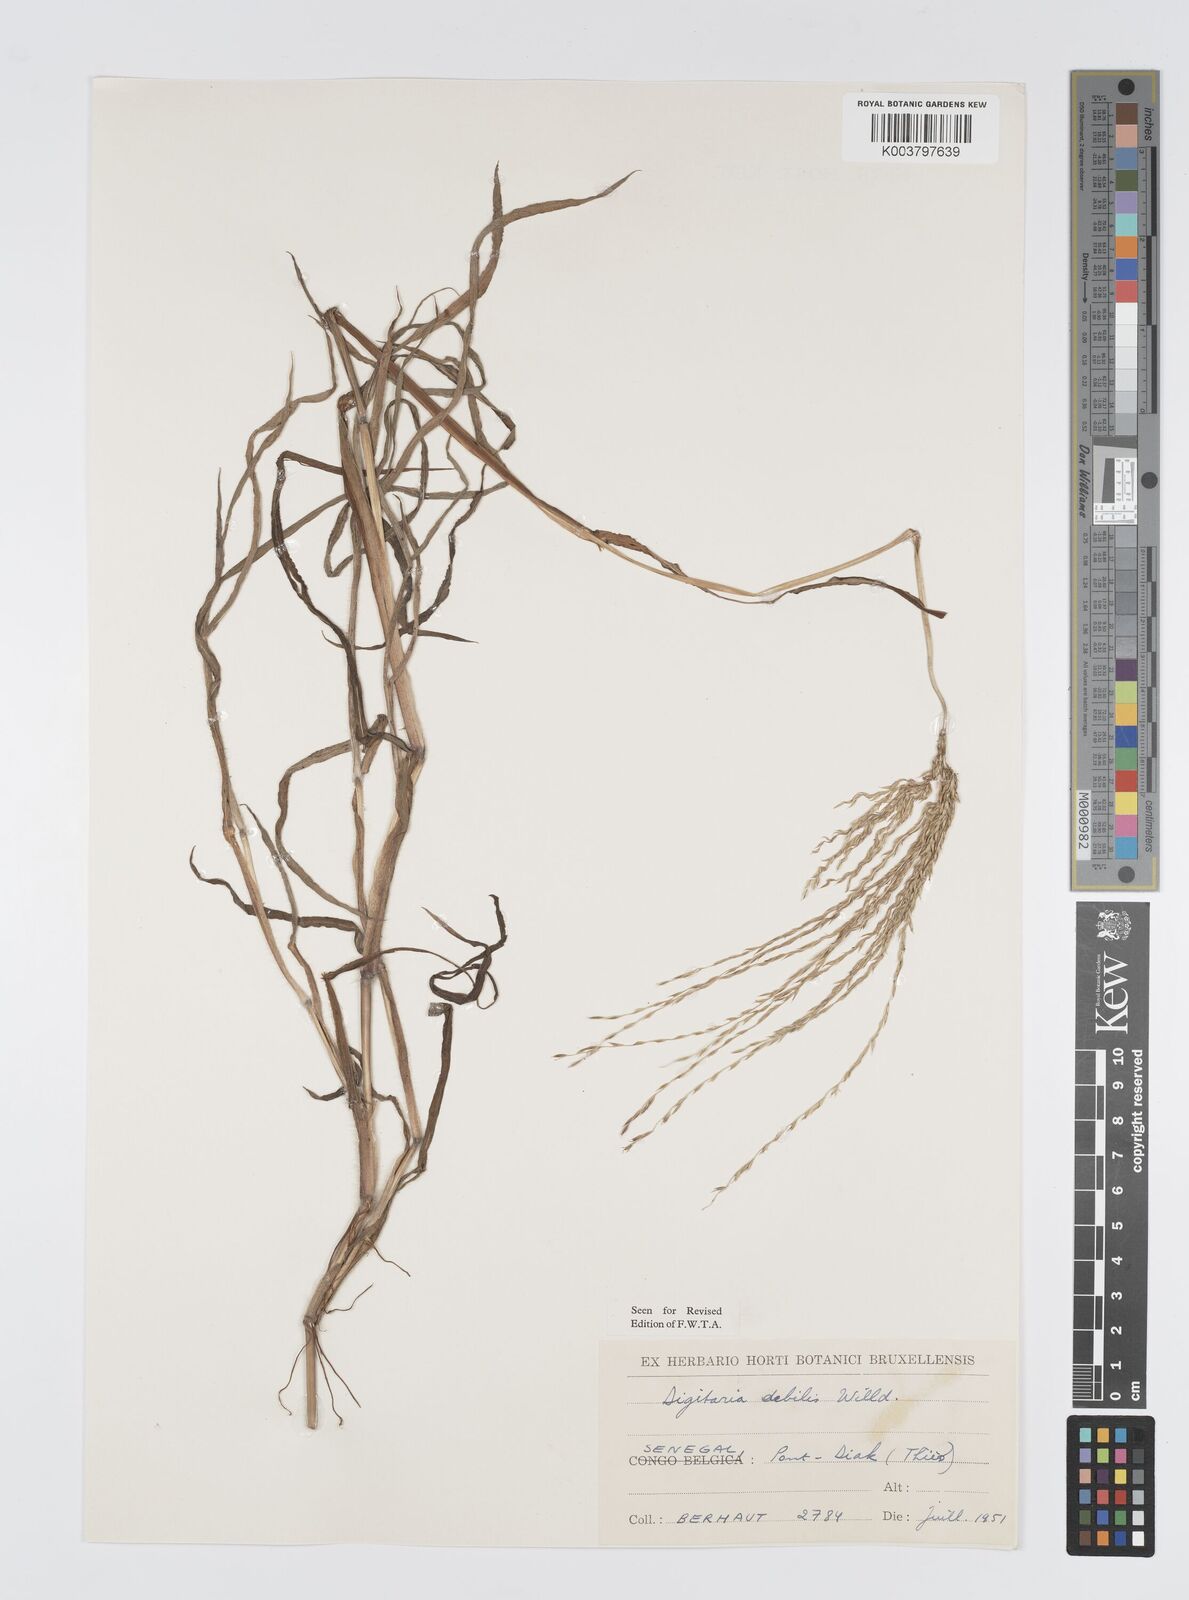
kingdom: Plantae
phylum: Tracheophyta
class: Liliopsida
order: Poales
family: Poaceae
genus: Digitaria
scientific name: Digitaria debilis
